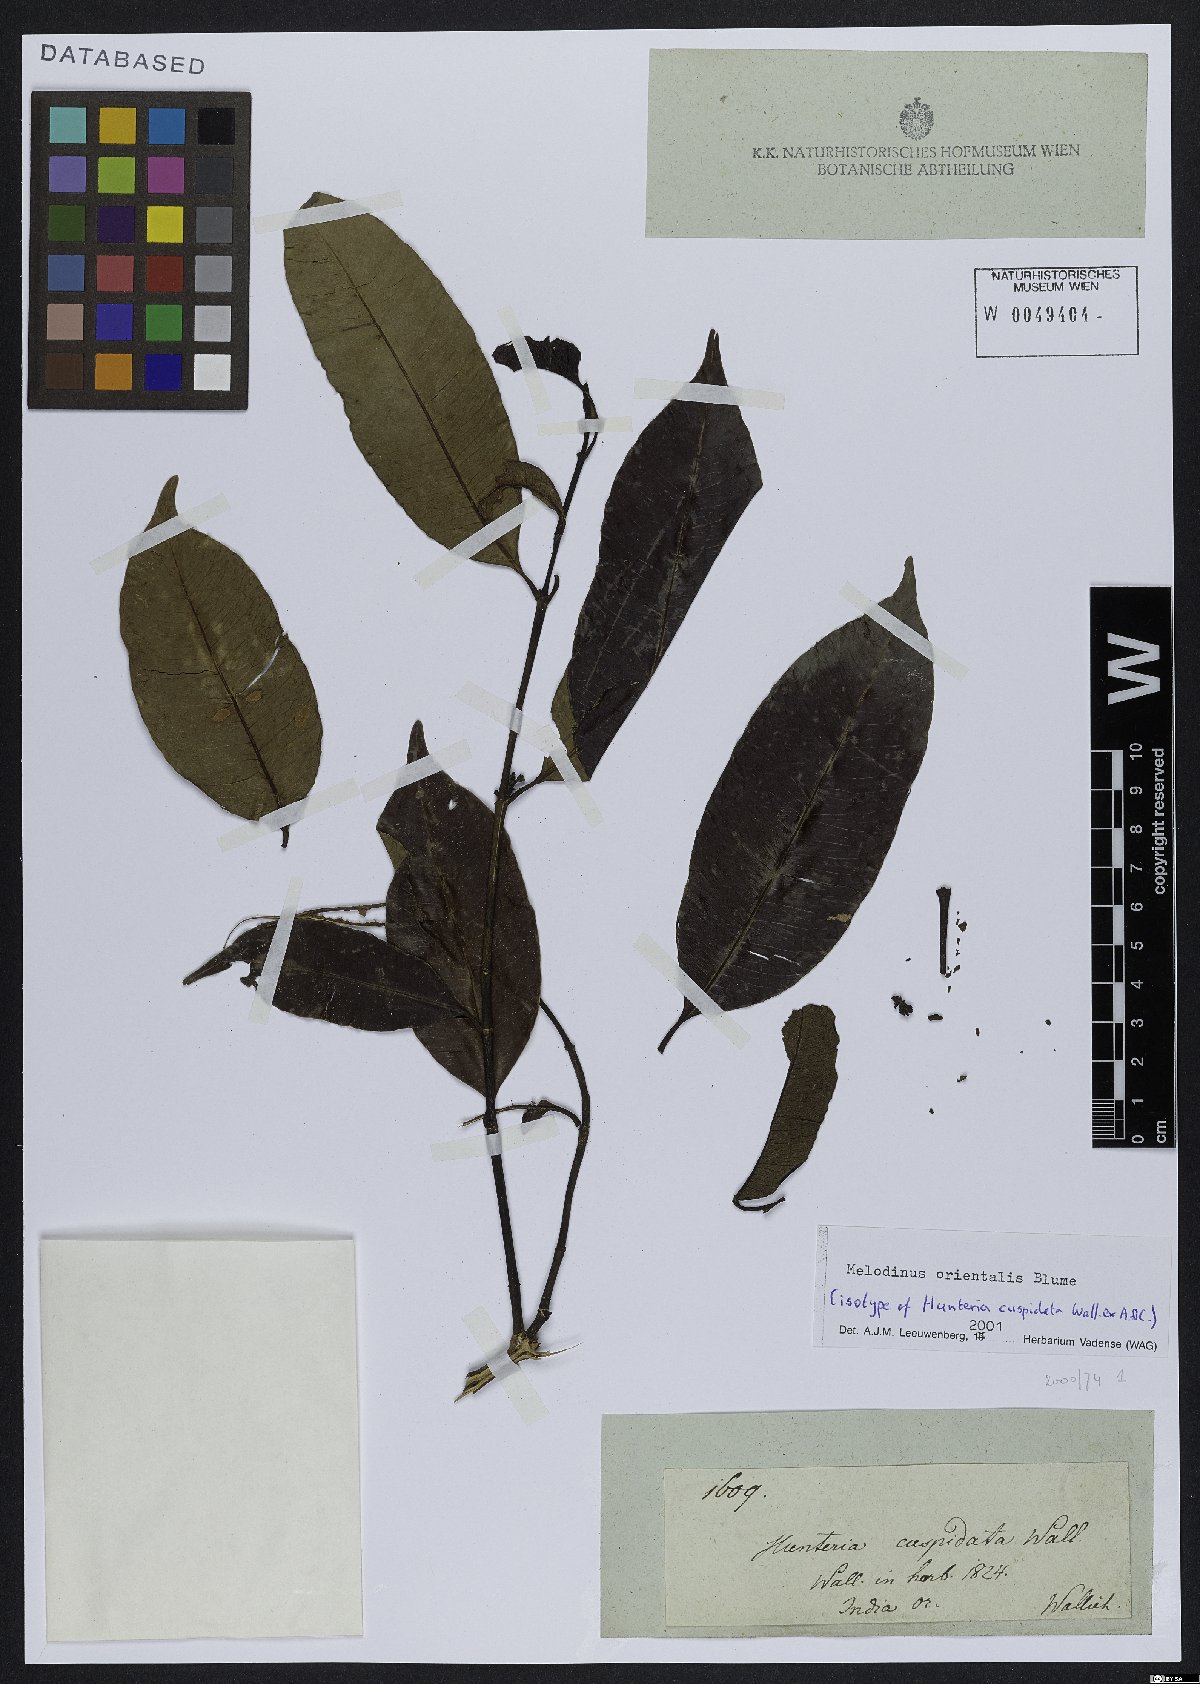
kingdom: Plantae
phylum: Tracheophyta
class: Magnoliopsida
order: Gentianales
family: Apocynaceae
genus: Melodinus
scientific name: Melodinus orientalis
